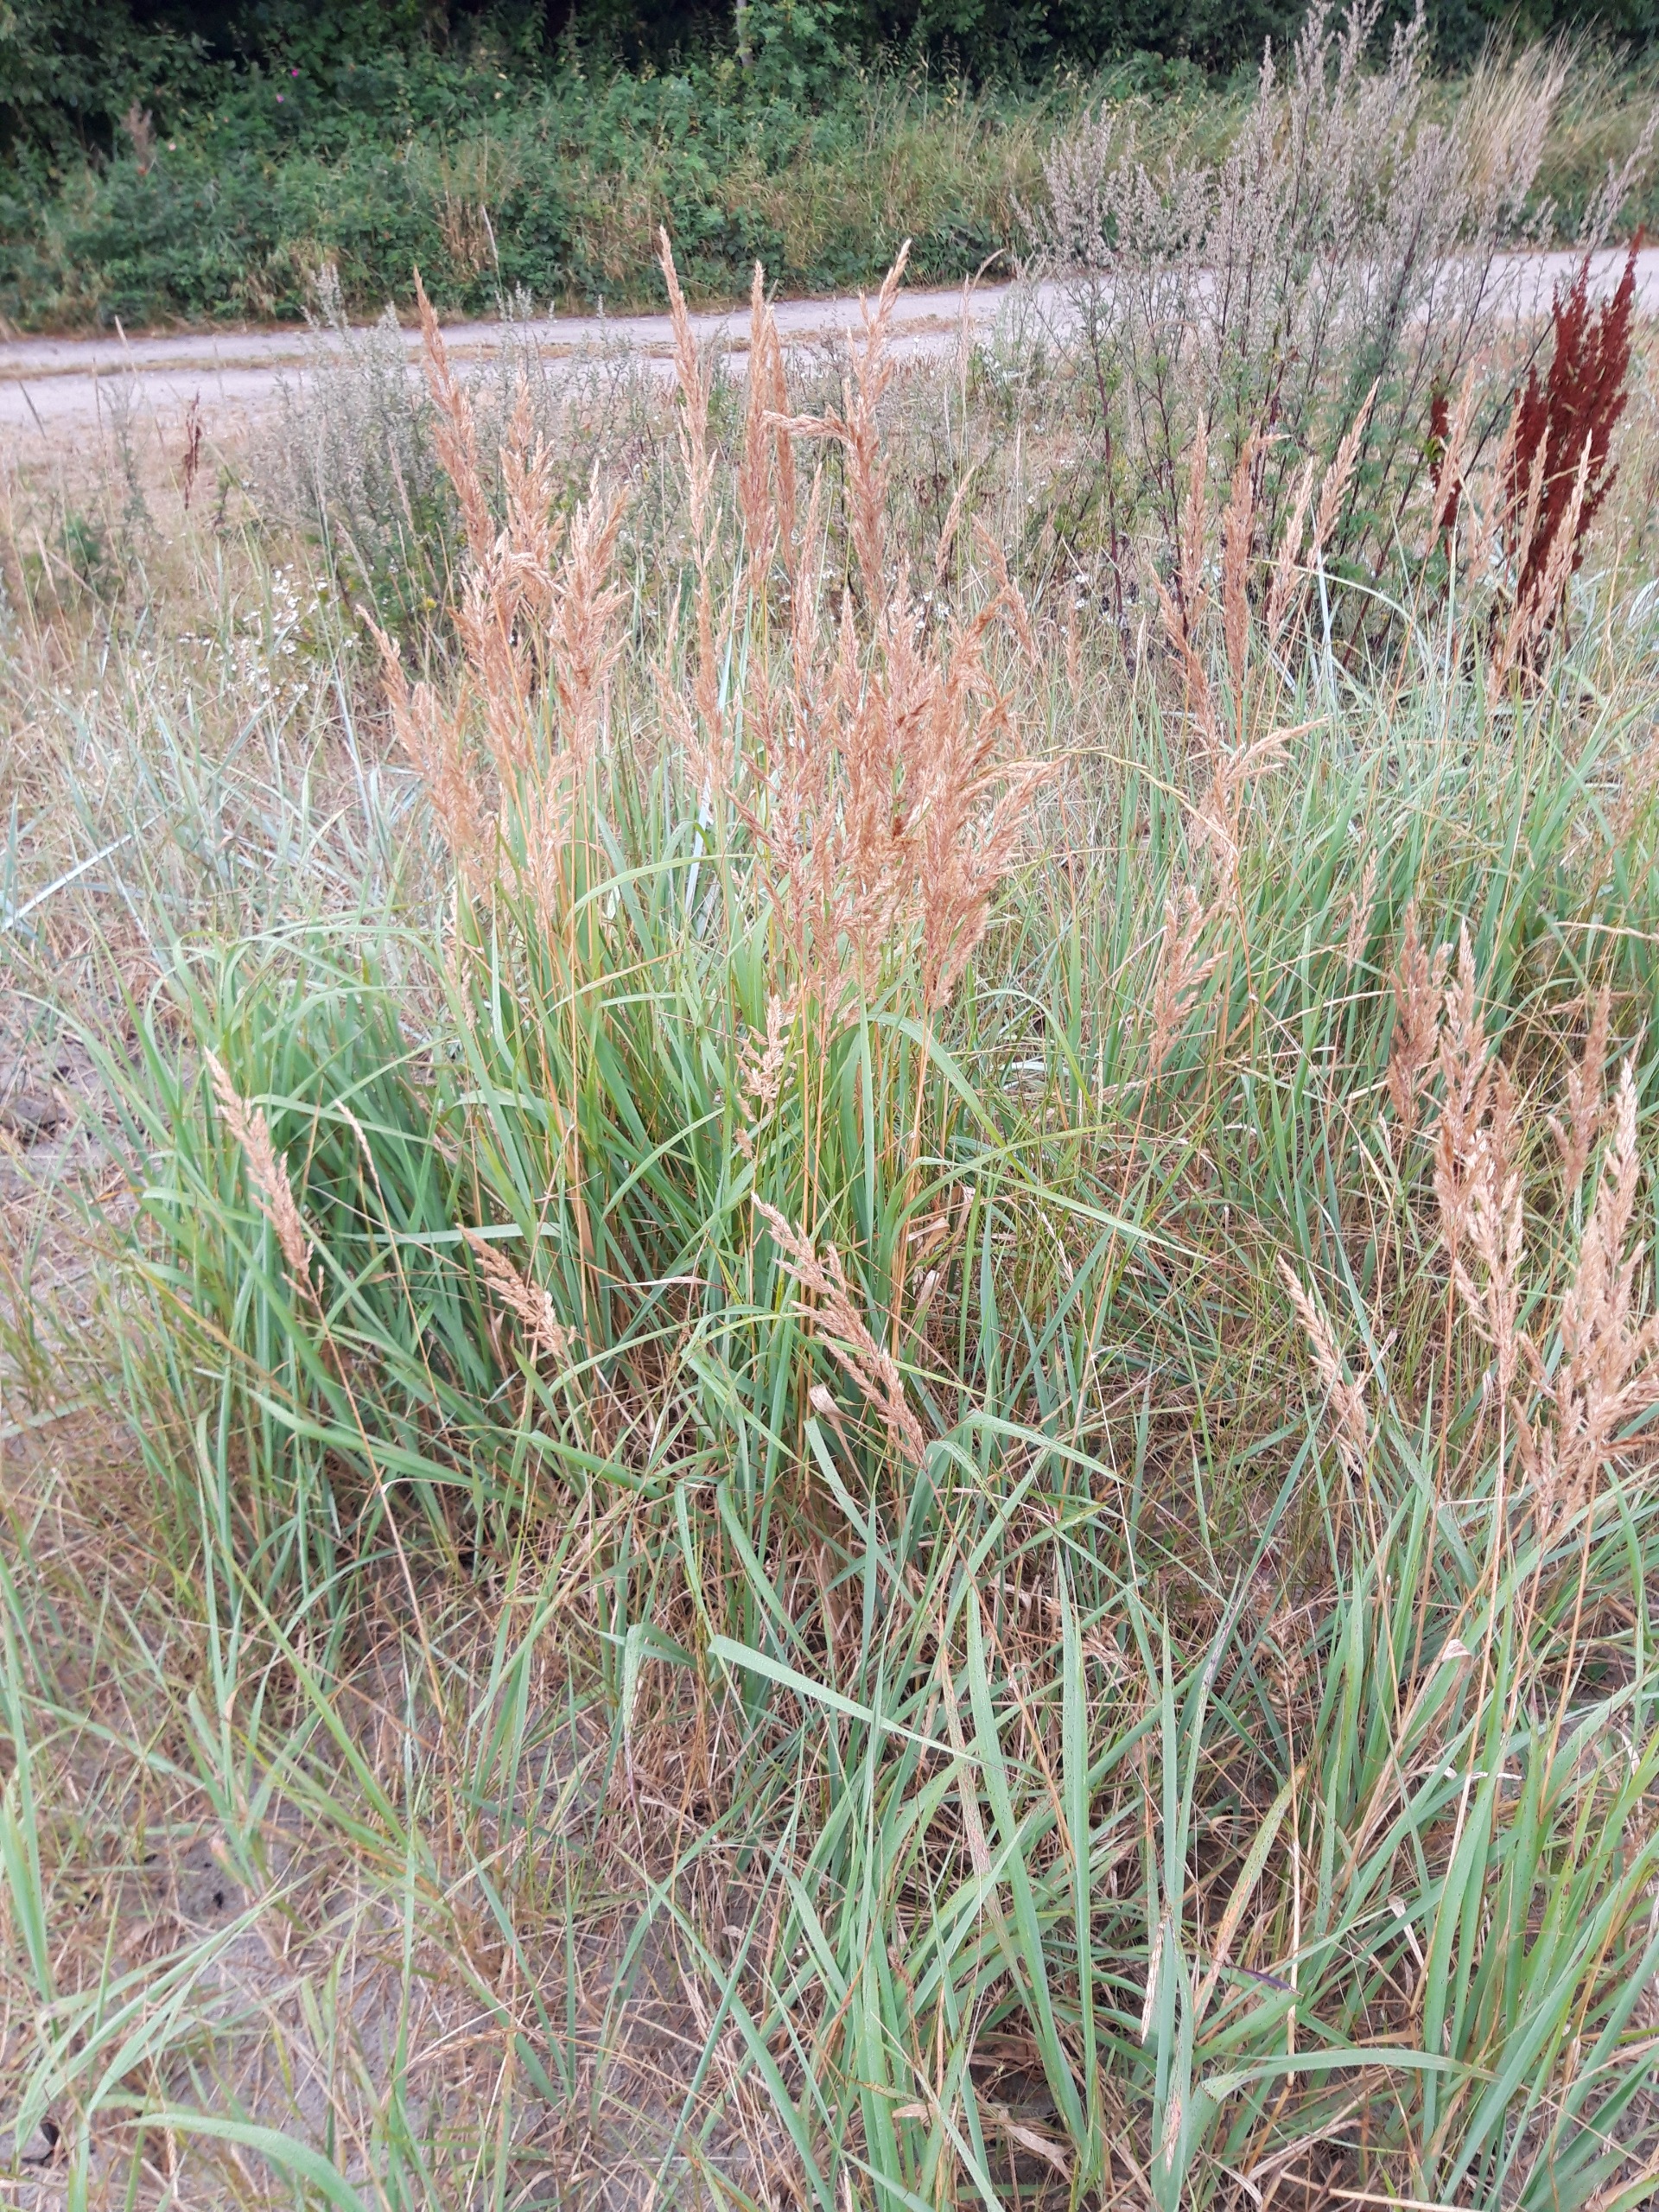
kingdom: Plantae
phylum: Tracheophyta
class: Liliopsida
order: Poales
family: Poaceae
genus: Calamagrostis
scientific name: Calamagrostis epigejos
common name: Bjerg-rørhvene
